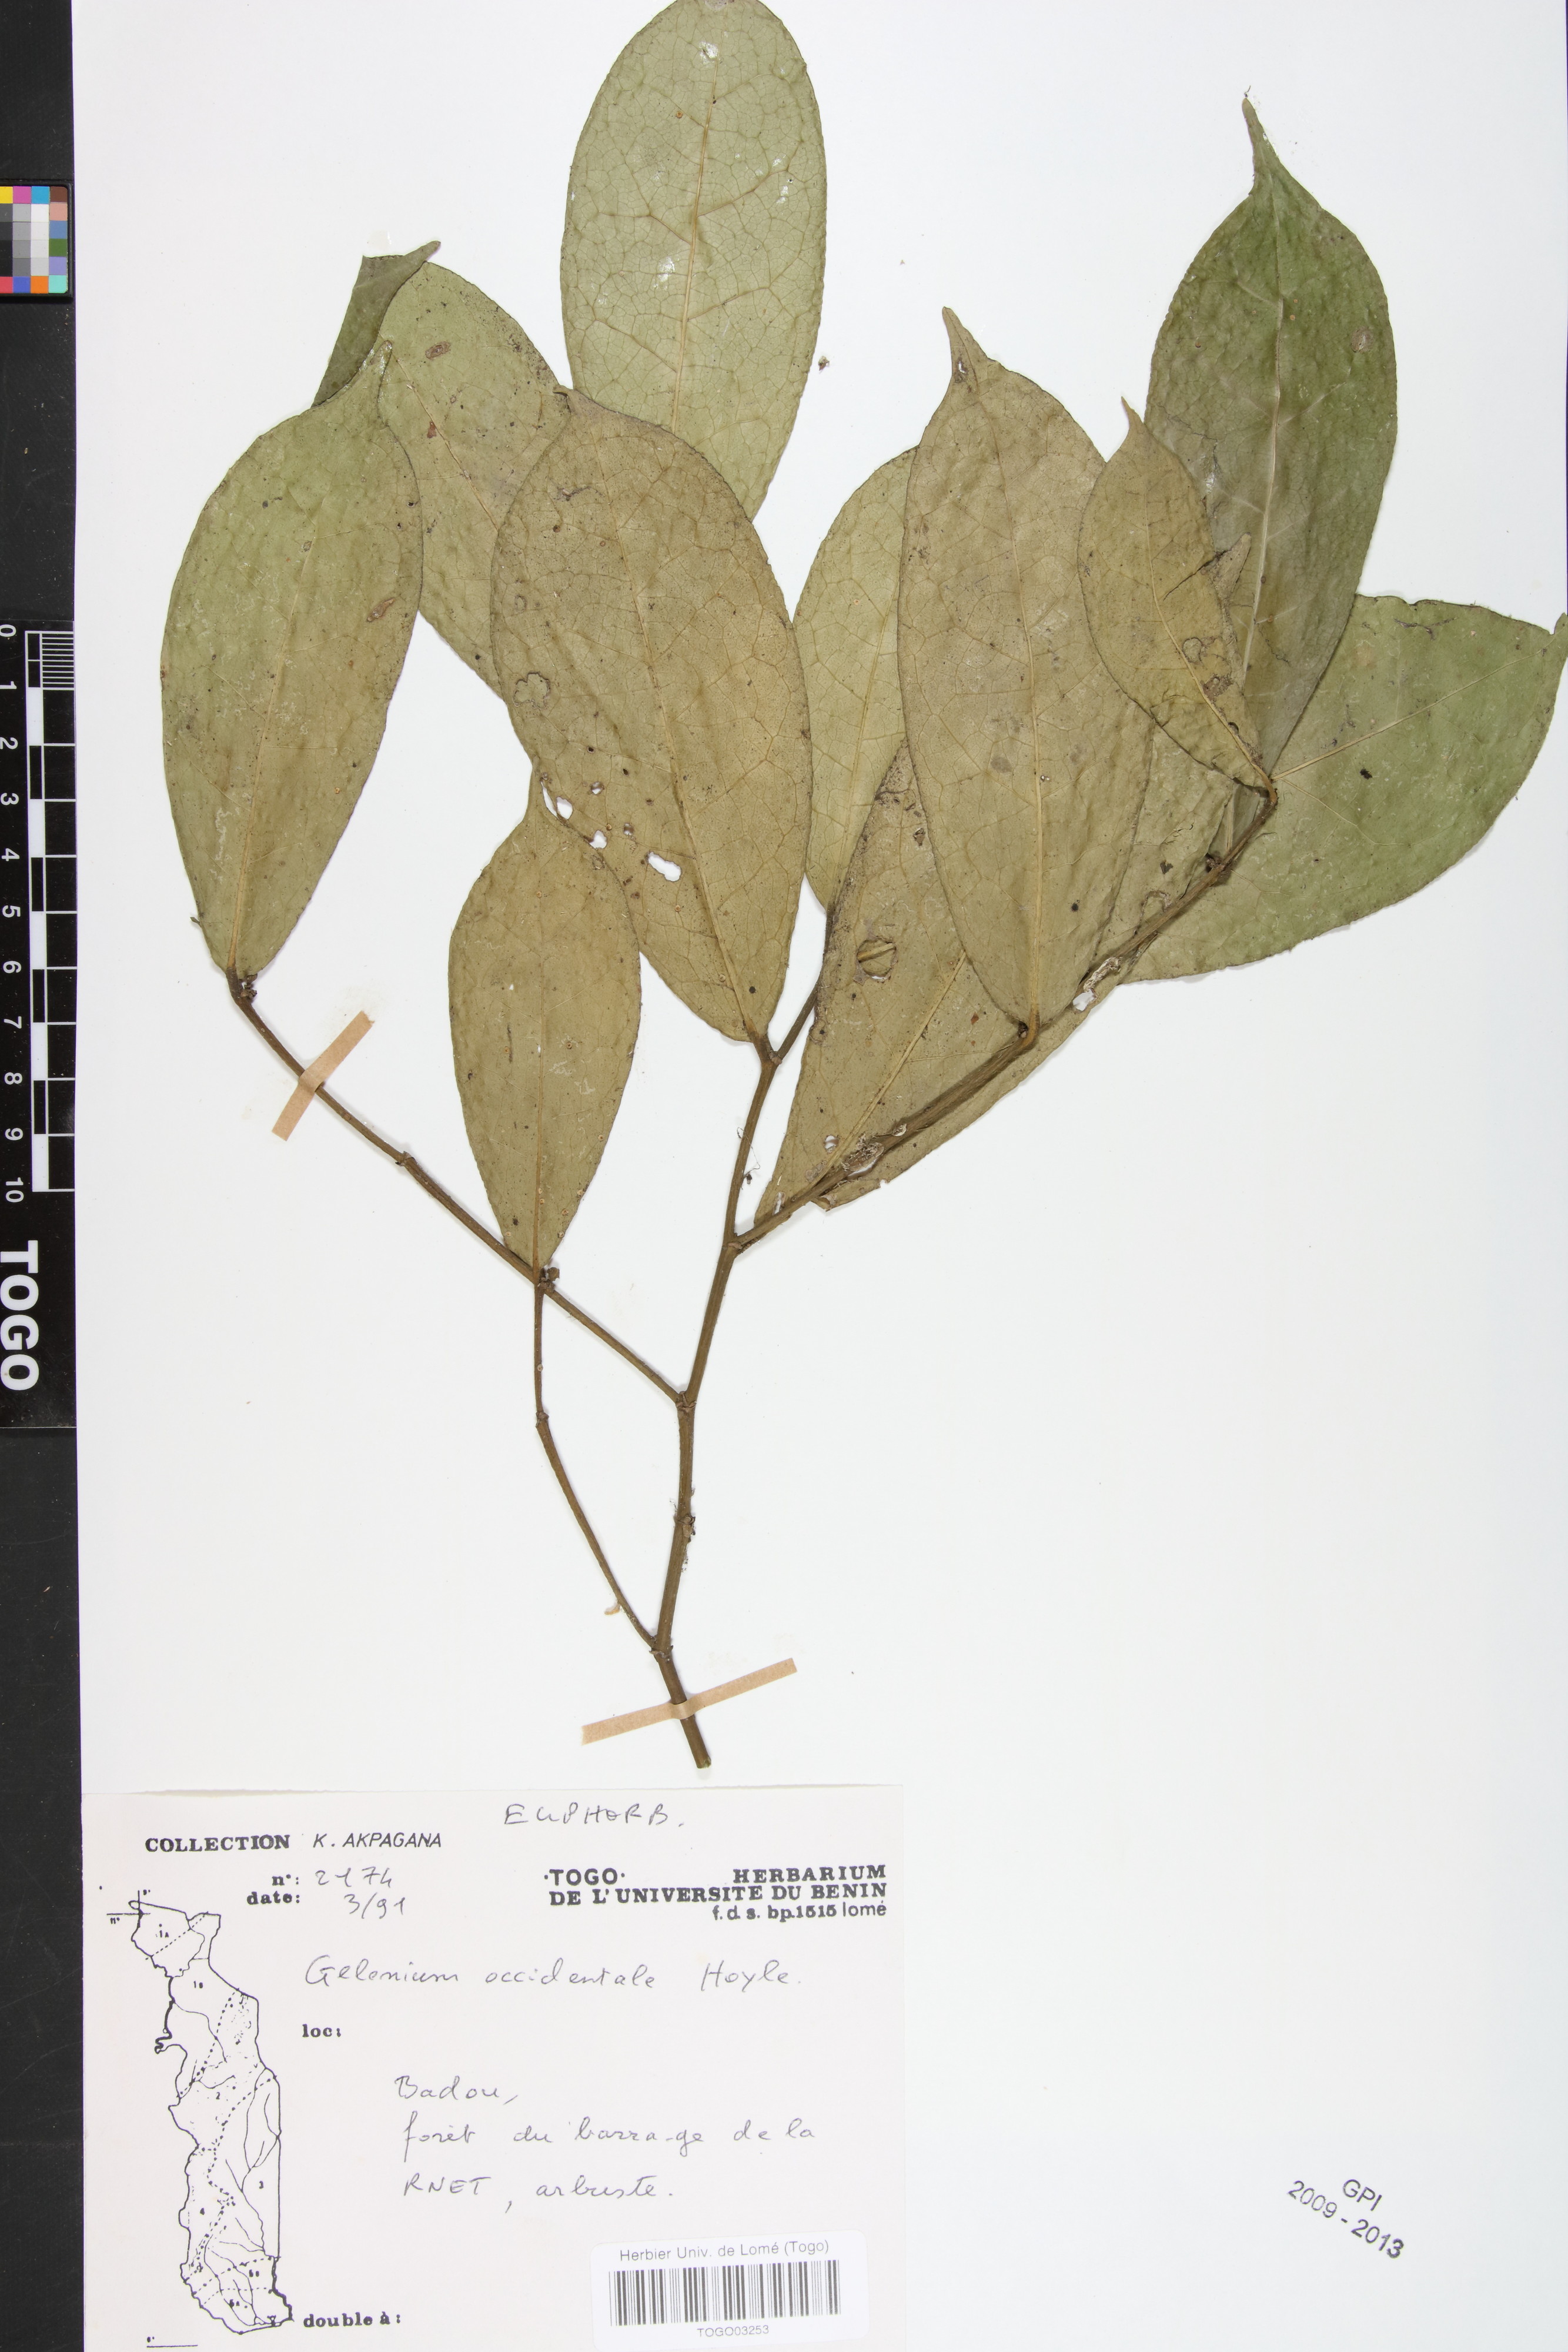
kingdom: Plantae
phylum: Tracheophyta
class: Magnoliopsida
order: Malpighiales
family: Euphorbiaceae
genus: Suregada
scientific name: Suregada occidentalis
